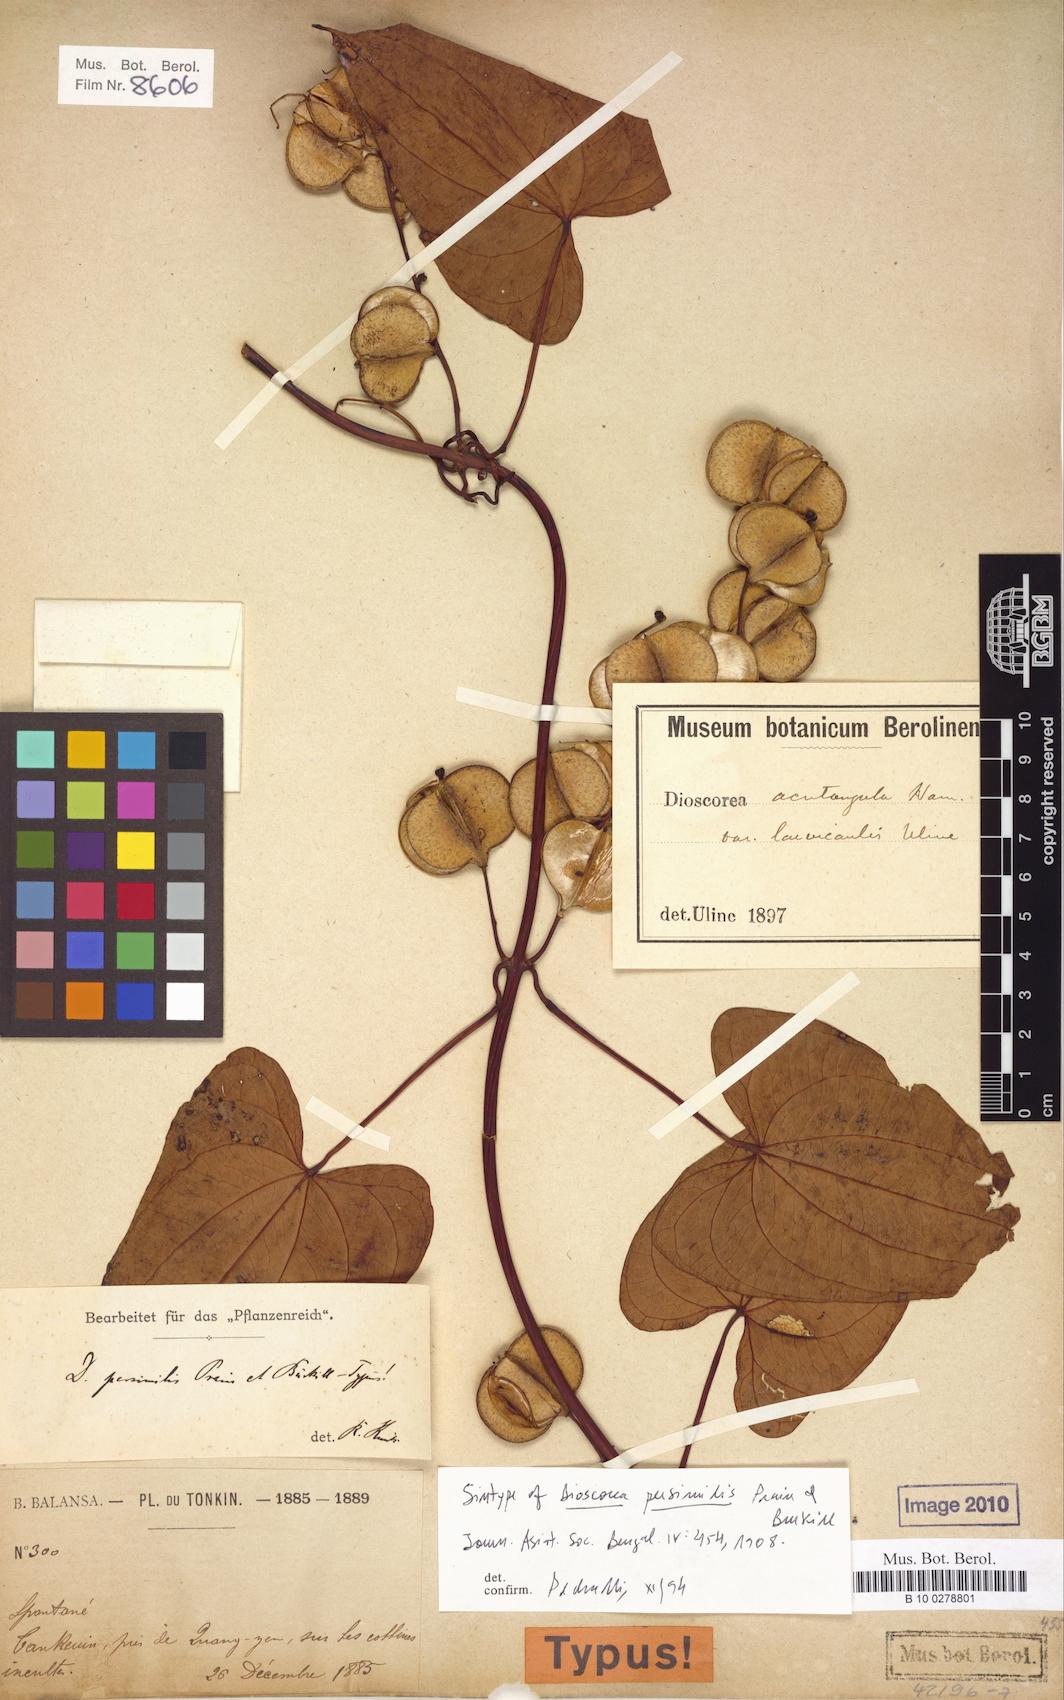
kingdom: Plantae
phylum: Tracheophyta
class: Liliopsida
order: Dioscoreales
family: Dioscoreaceae
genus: Dioscorea
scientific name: Dioscorea hamiltonii
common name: Mountain yam
